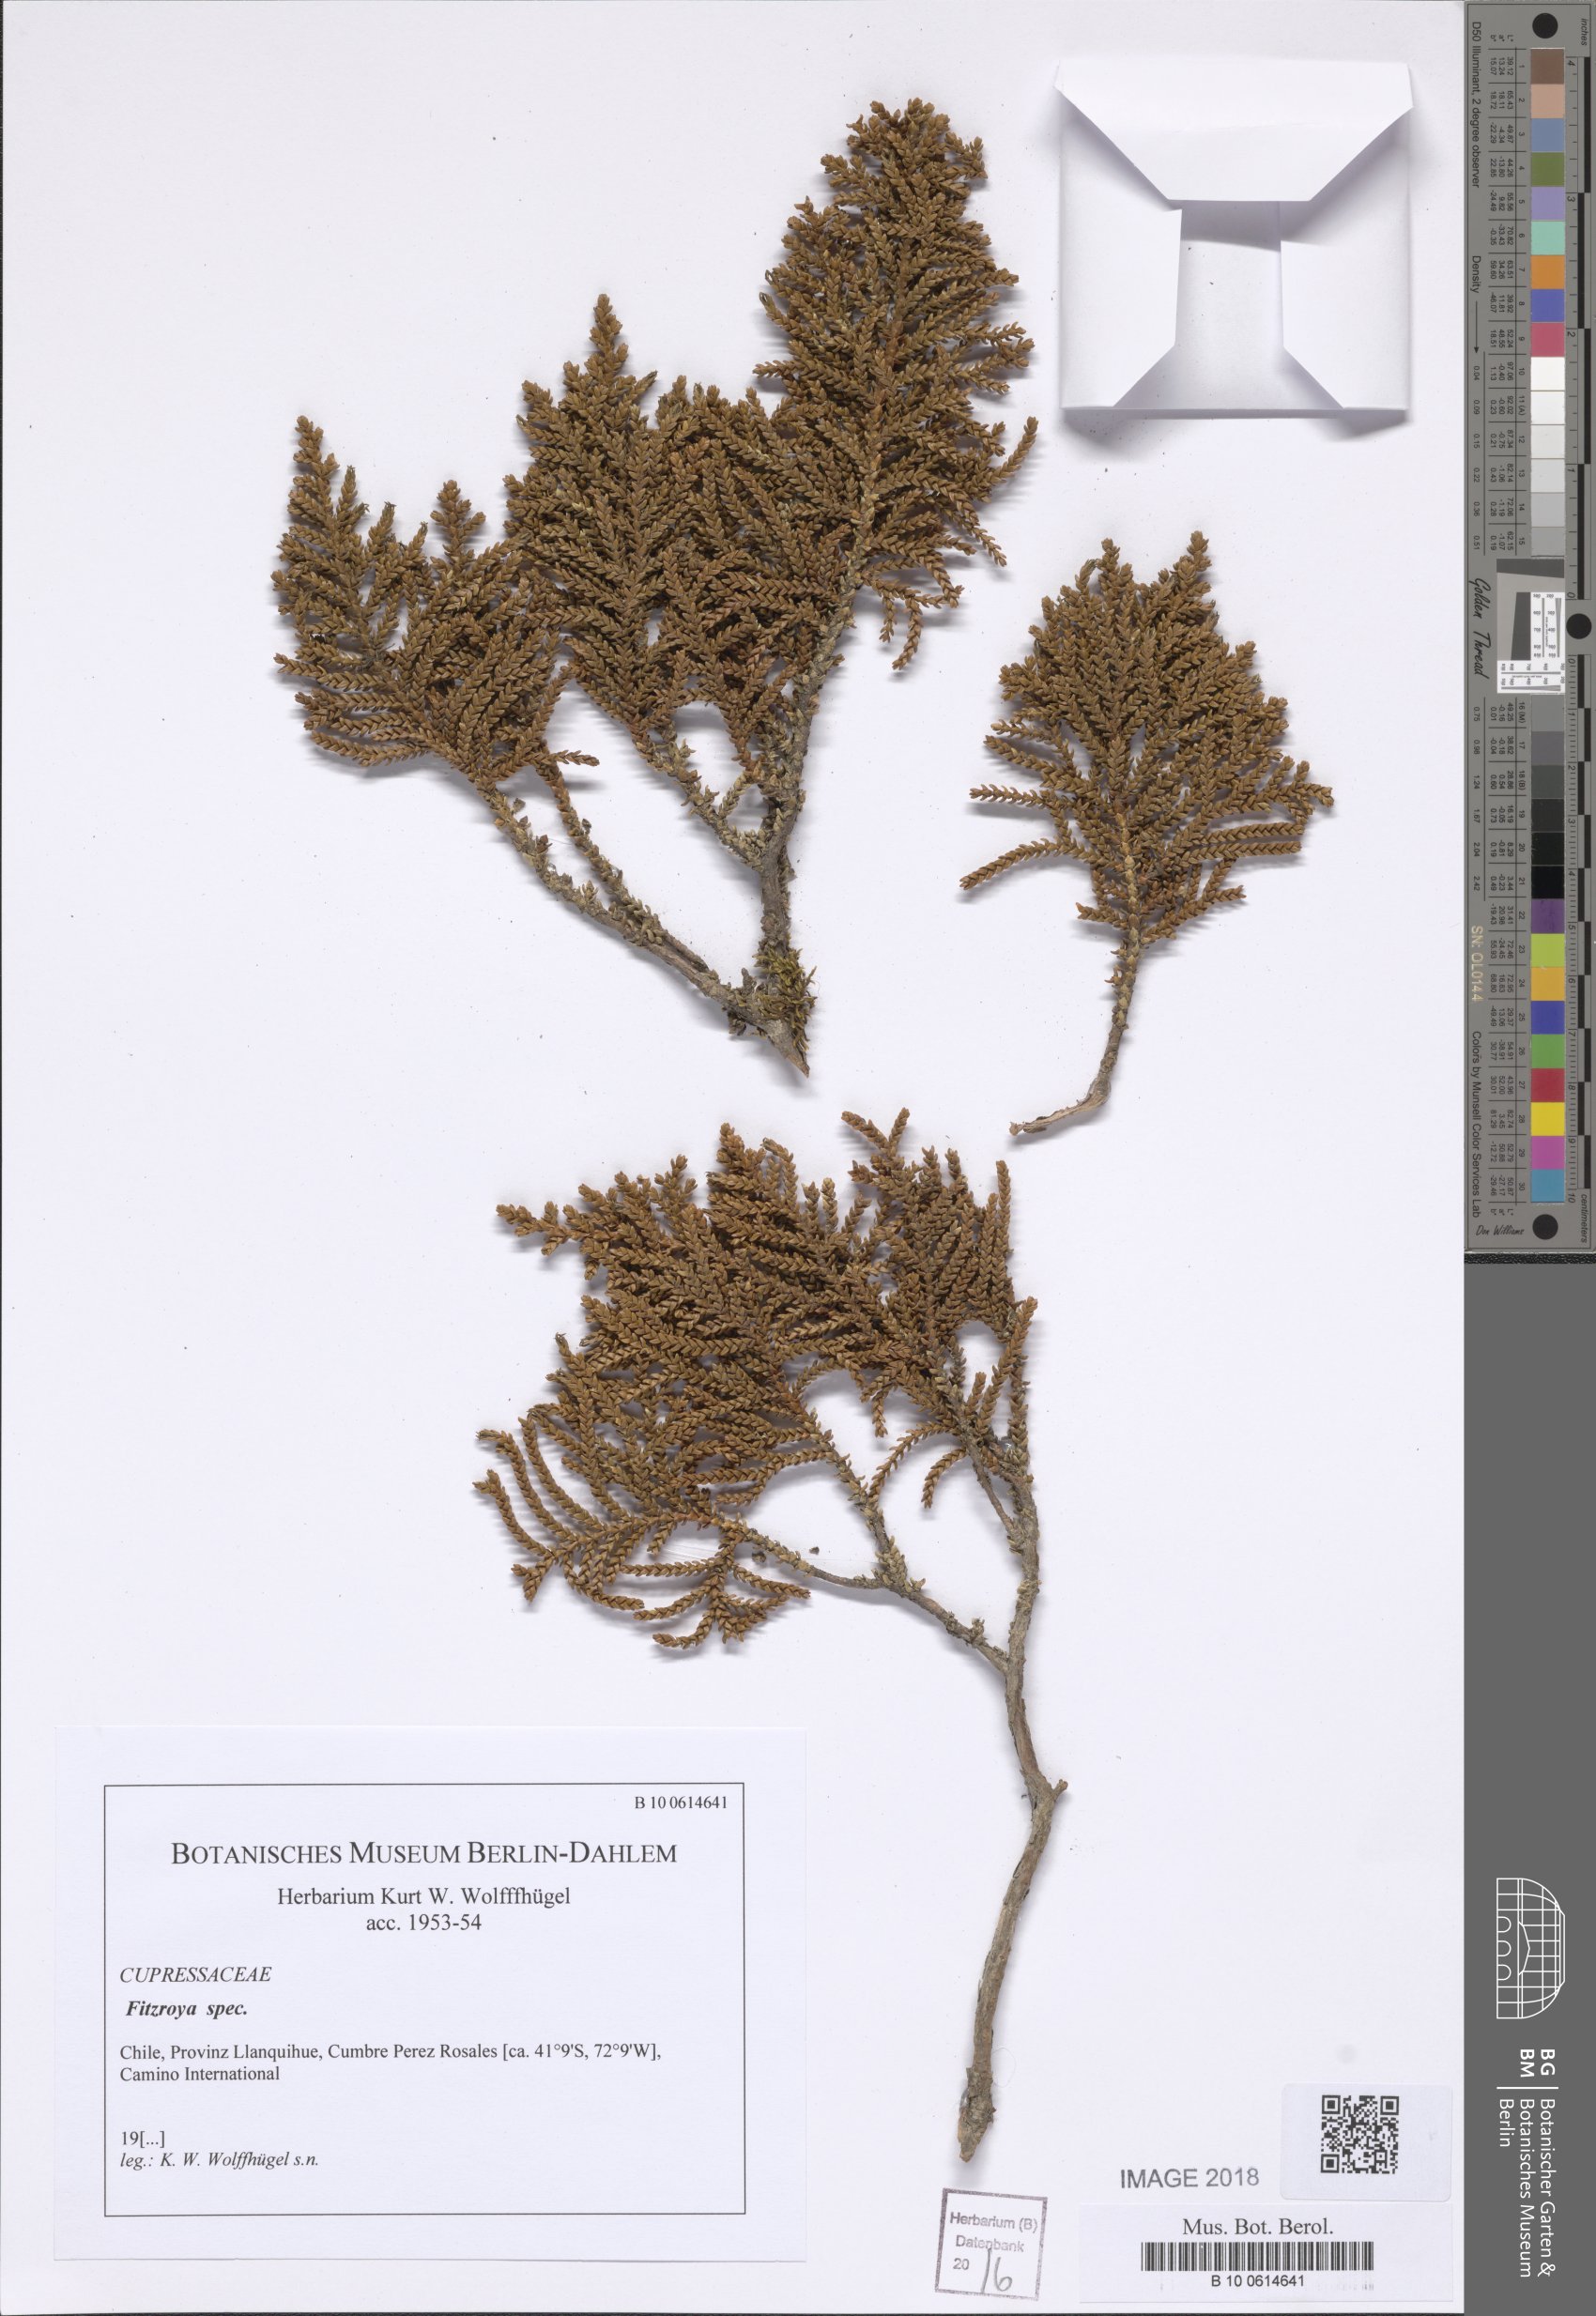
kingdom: Plantae
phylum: Tracheophyta
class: Pinopsida
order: Pinales
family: Cupressaceae
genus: Fitzroya
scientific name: Fitzroya
